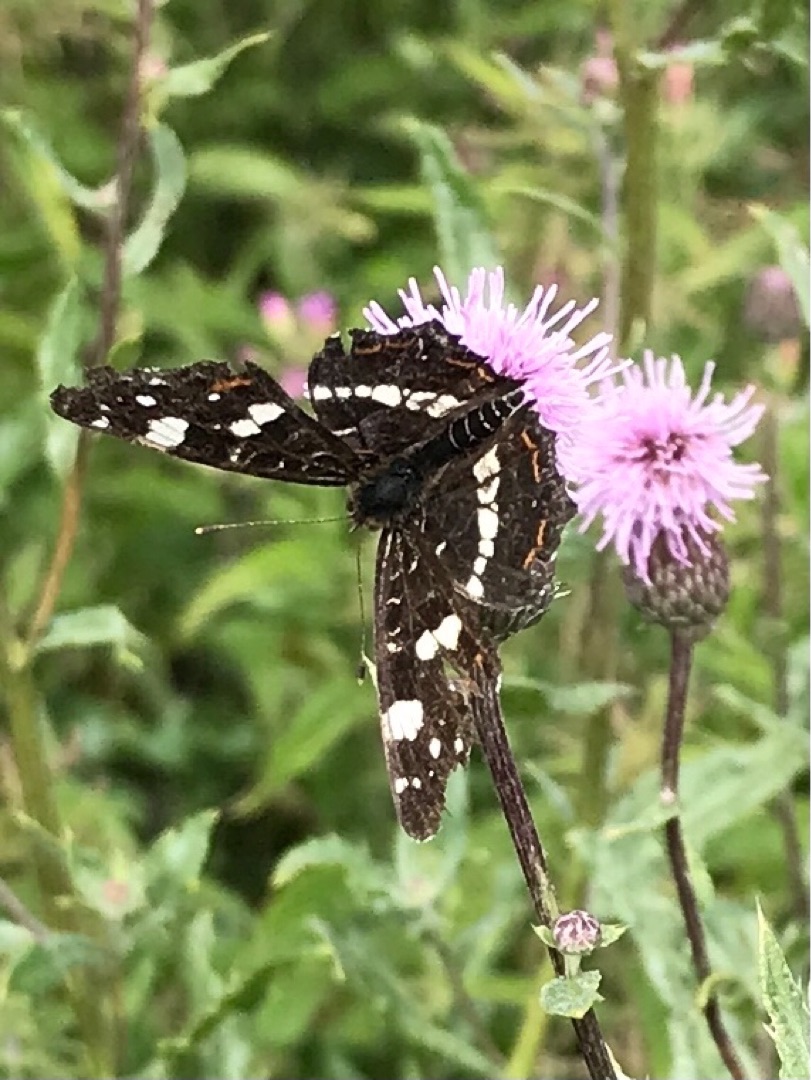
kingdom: Animalia
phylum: Arthropoda
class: Insecta
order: Lepidoptera
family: Nymphalidae
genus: Araschnia
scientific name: Araschnia levana
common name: Nældesommerfugl
